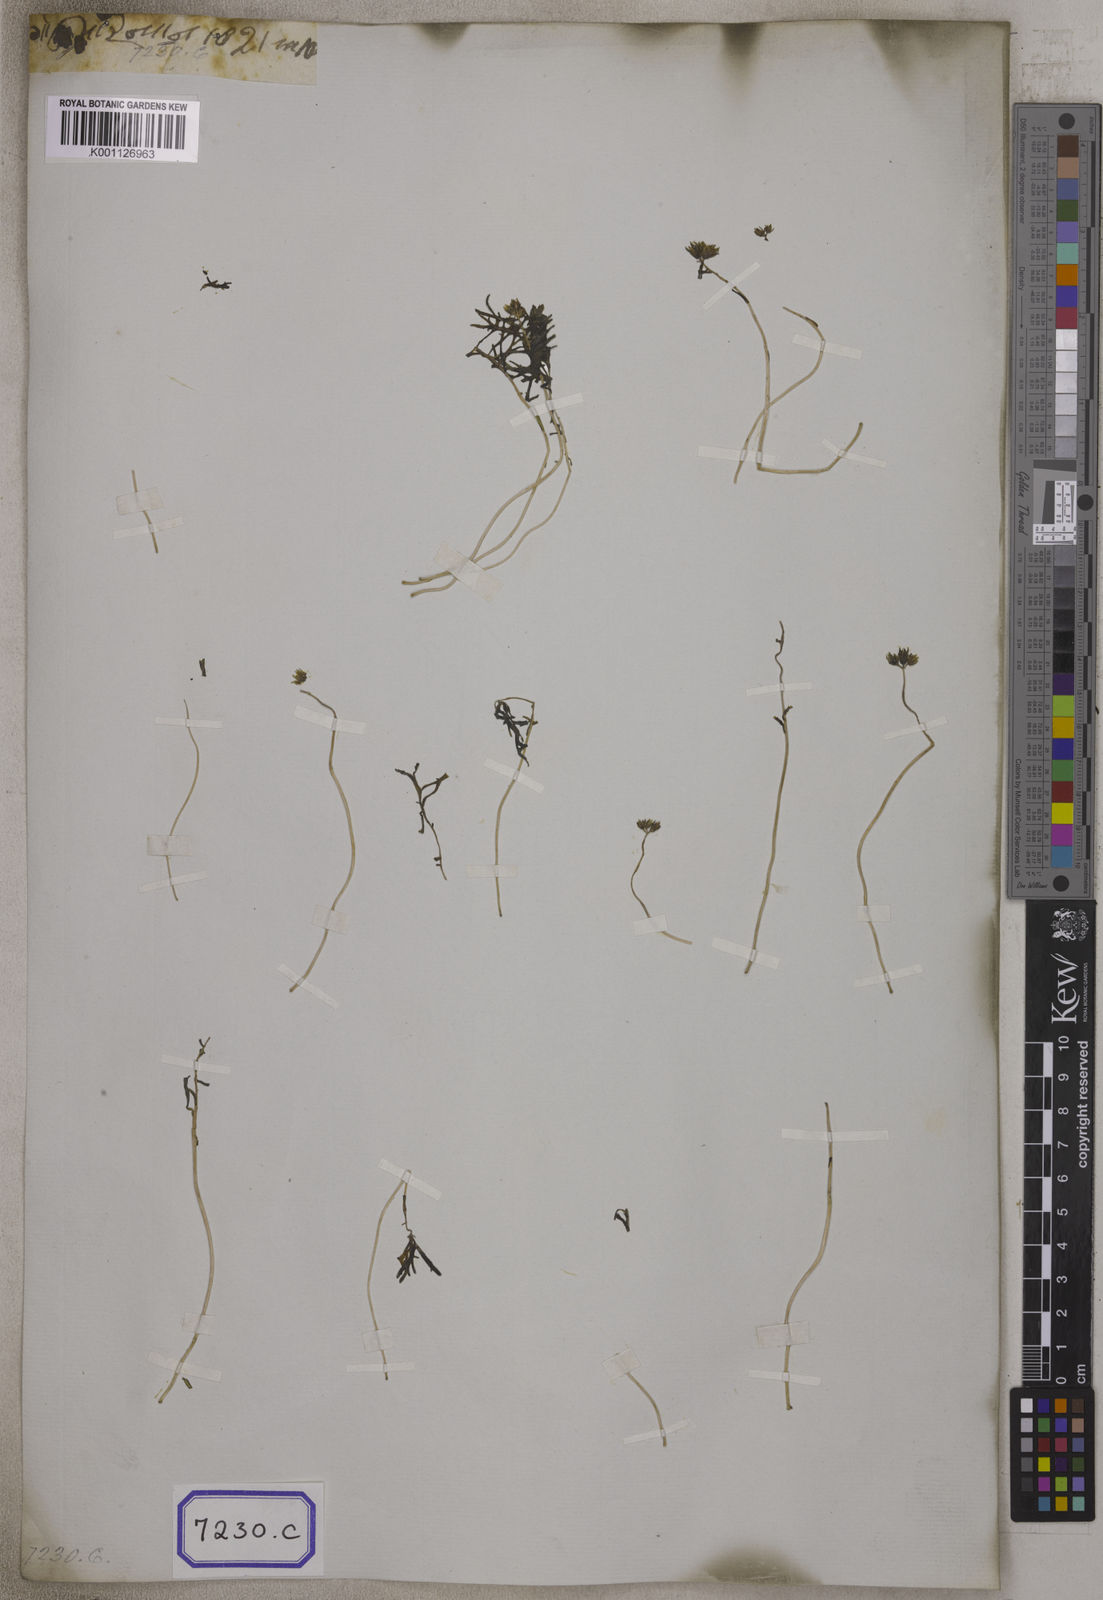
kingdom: Plantae
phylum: Tracheophyta
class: Magnoliopsida
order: Saxifragales
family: Crassulaceae
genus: Sedum
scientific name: Sedum
